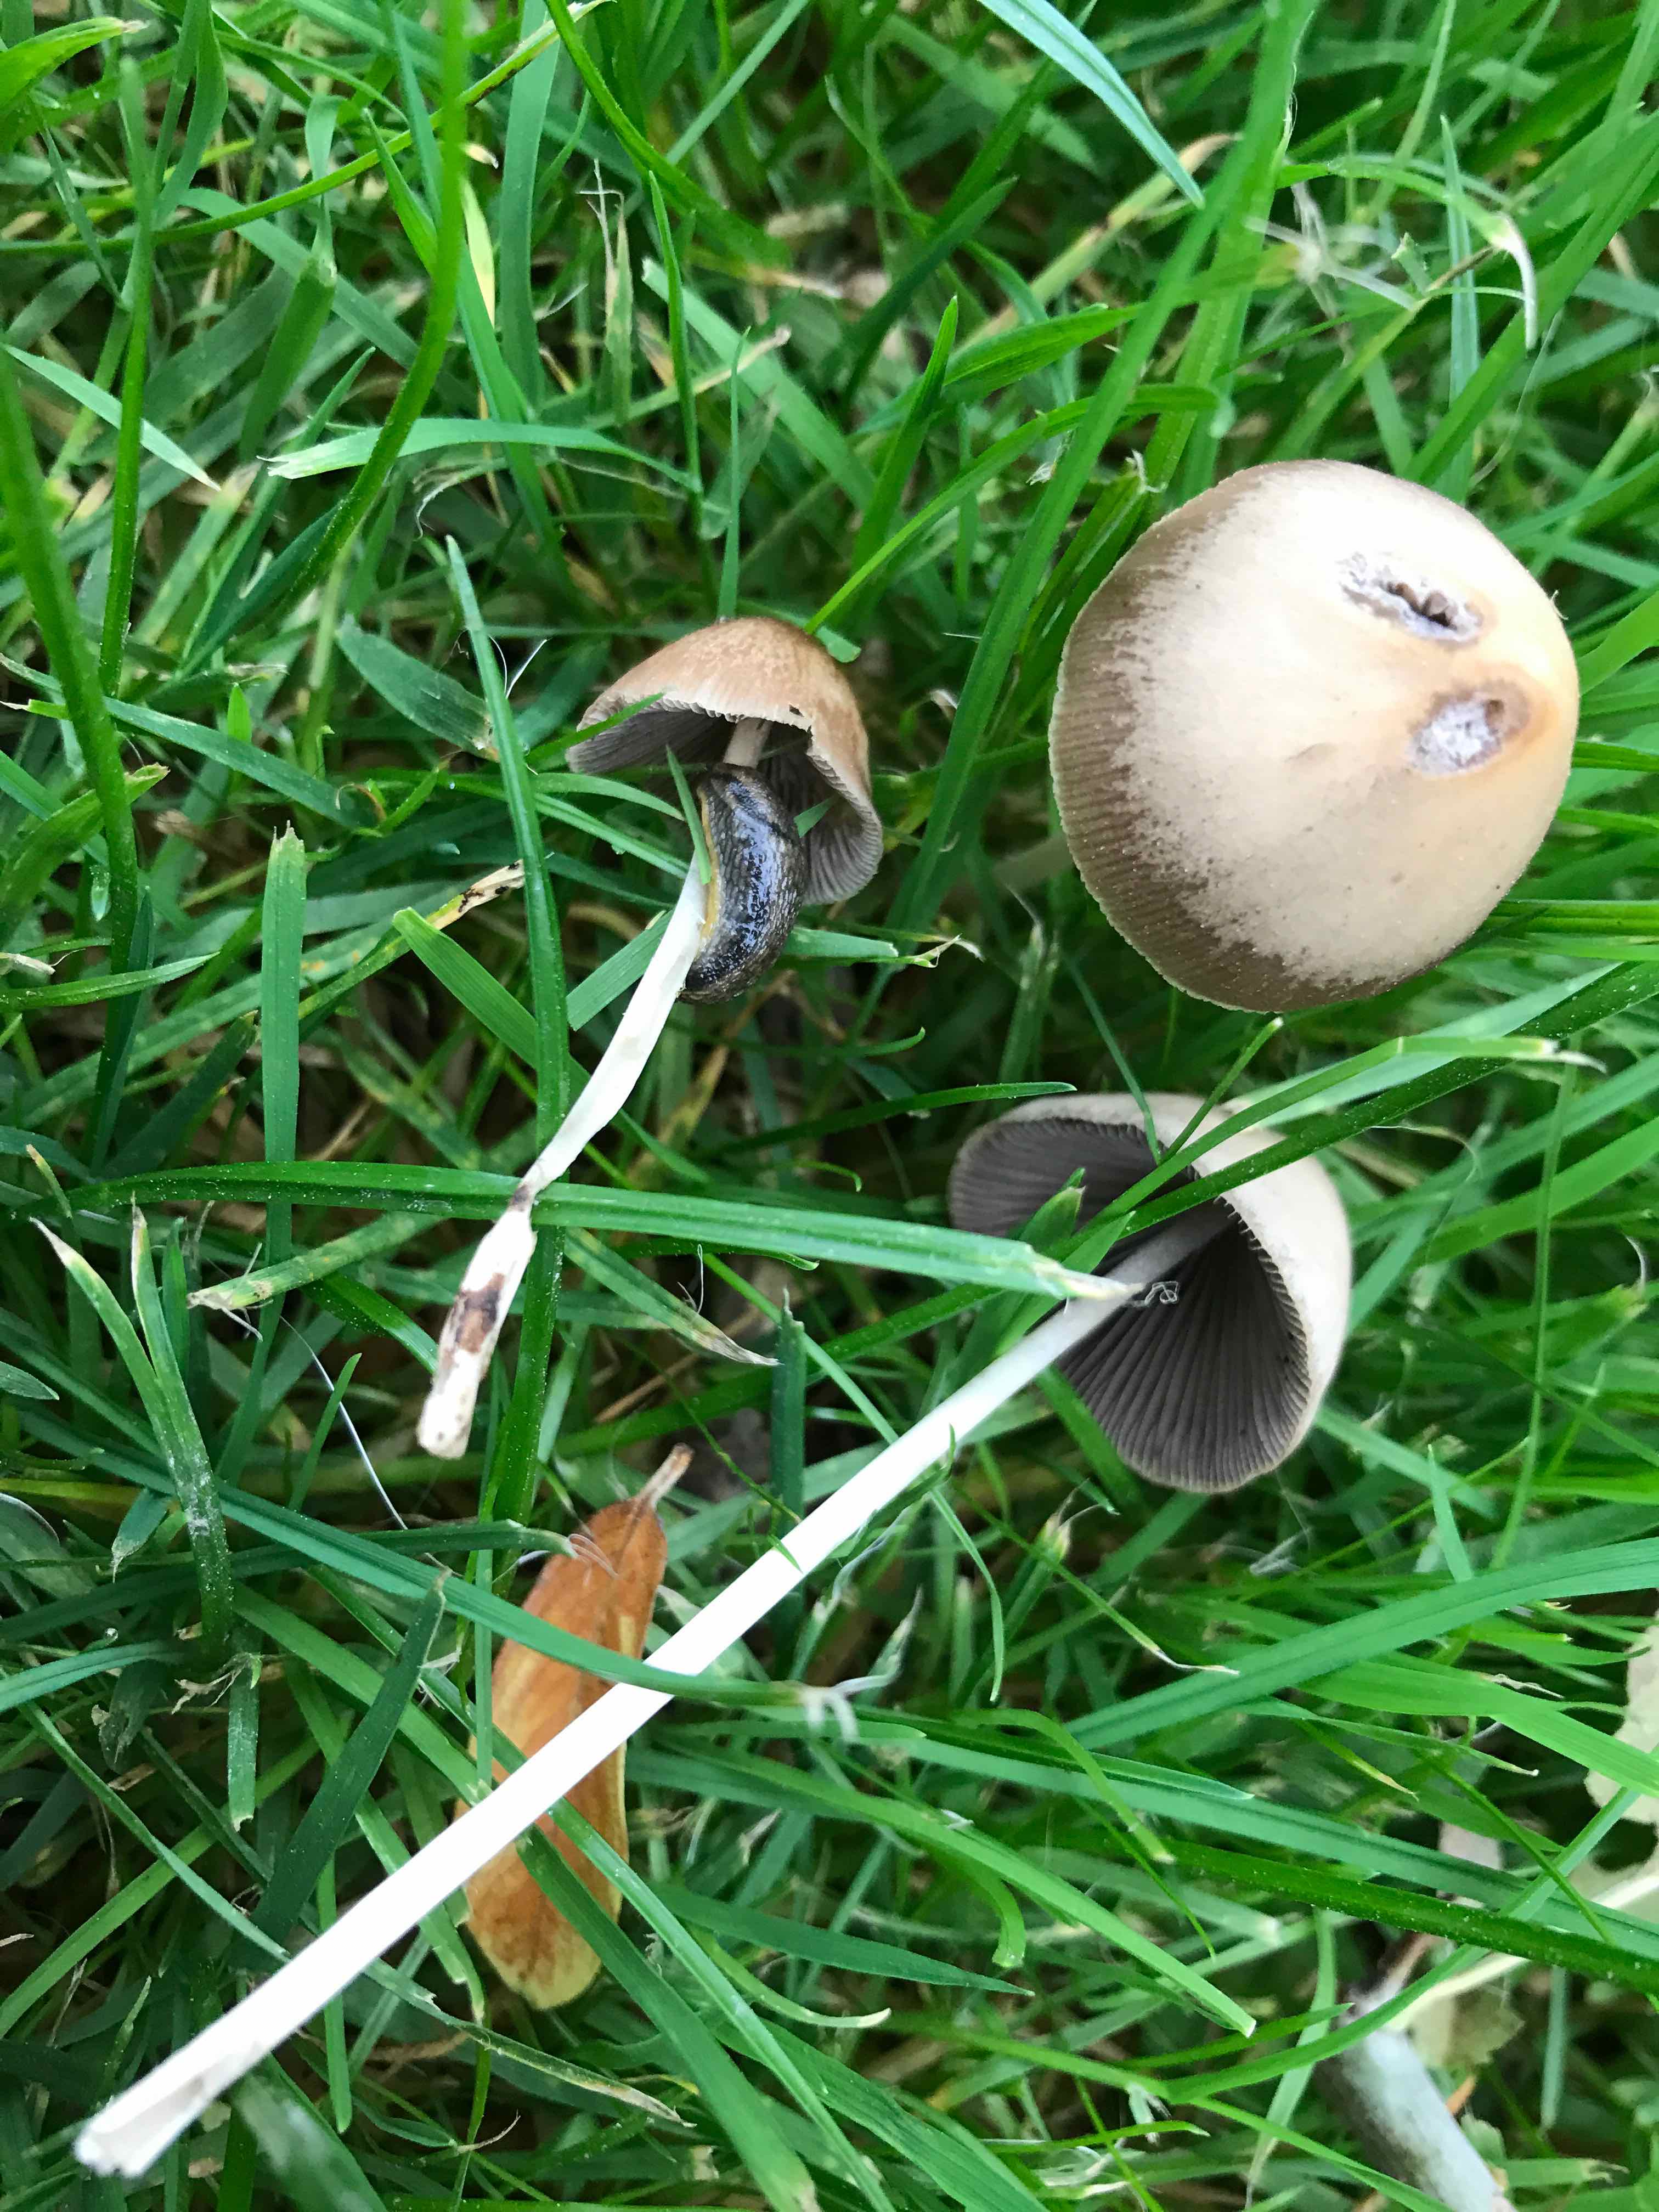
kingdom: Fungi
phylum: Basidiomycota
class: Agaricomycetes
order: Agaricales
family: Psathyrellaceae
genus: Parasola
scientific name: Parasola conopilea
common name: kegle-hjulhat
